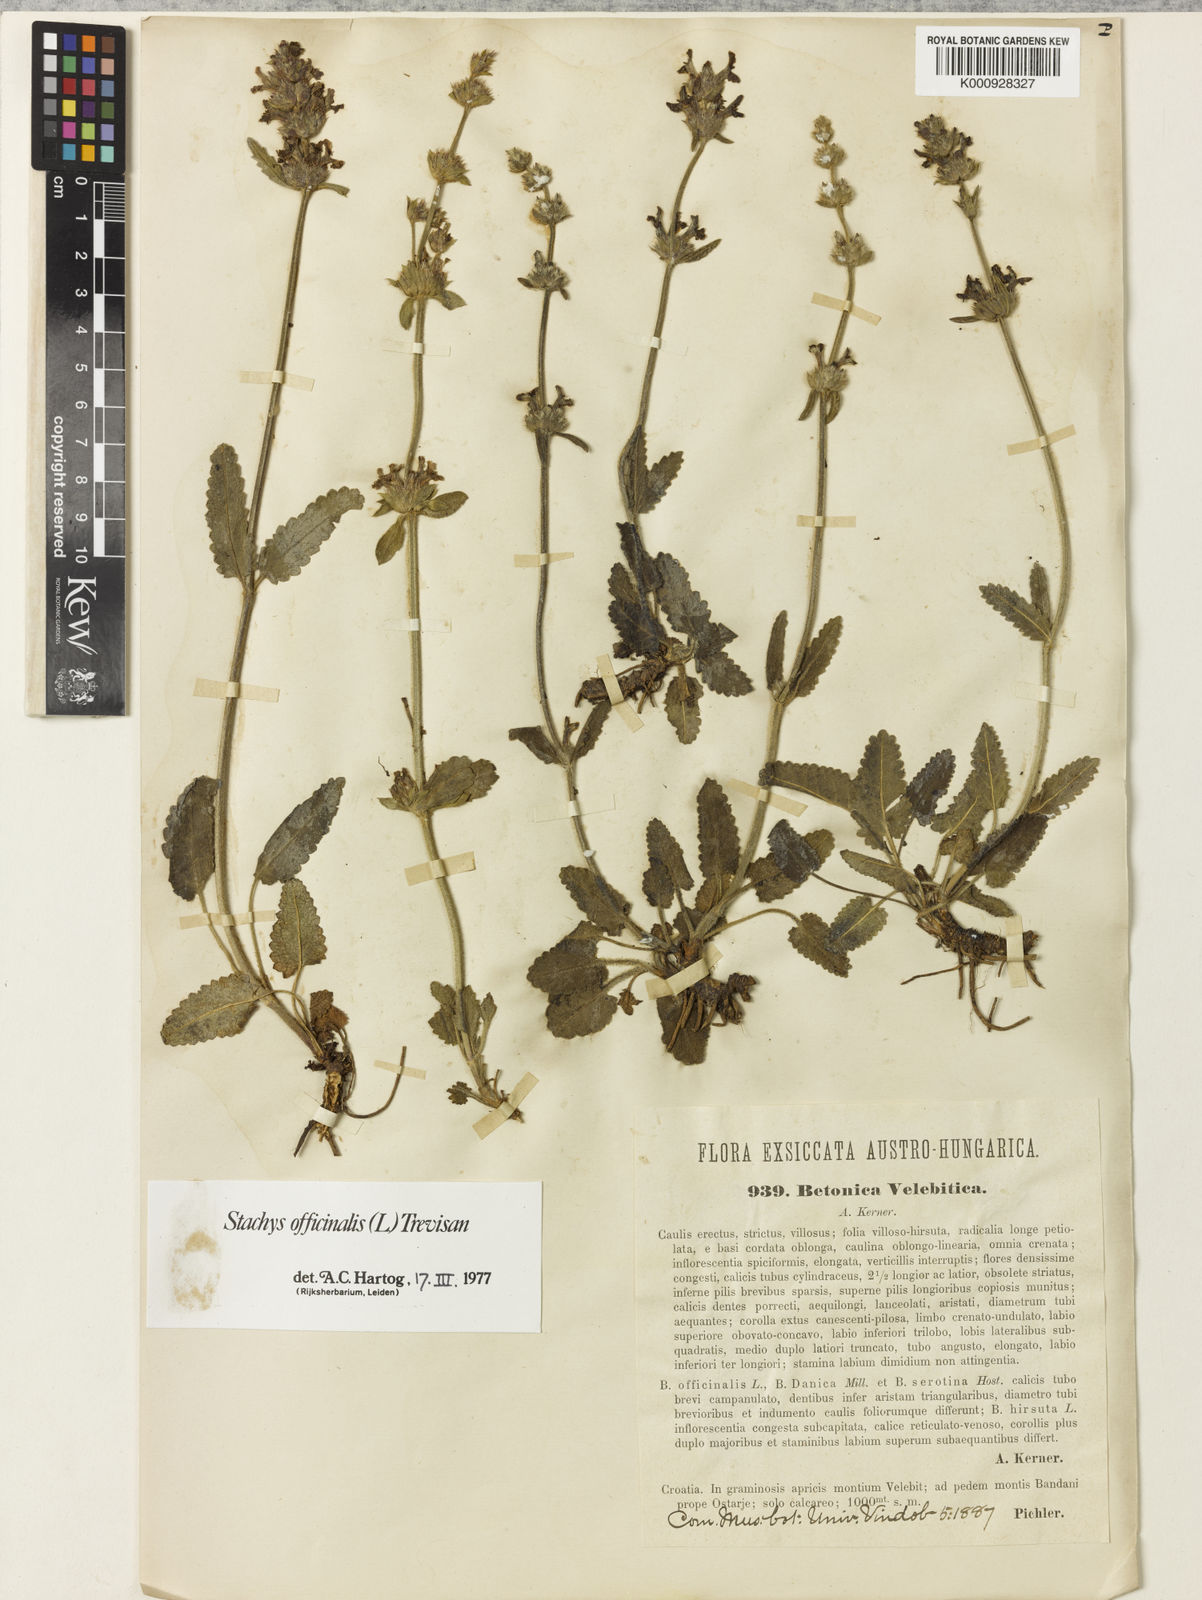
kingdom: Plantae
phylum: Tracheophyta
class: Magnoliopsida
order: Lamiales
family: Lamiaceae
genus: Betonica
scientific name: Betonica officinalis
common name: Bishop's-wort
